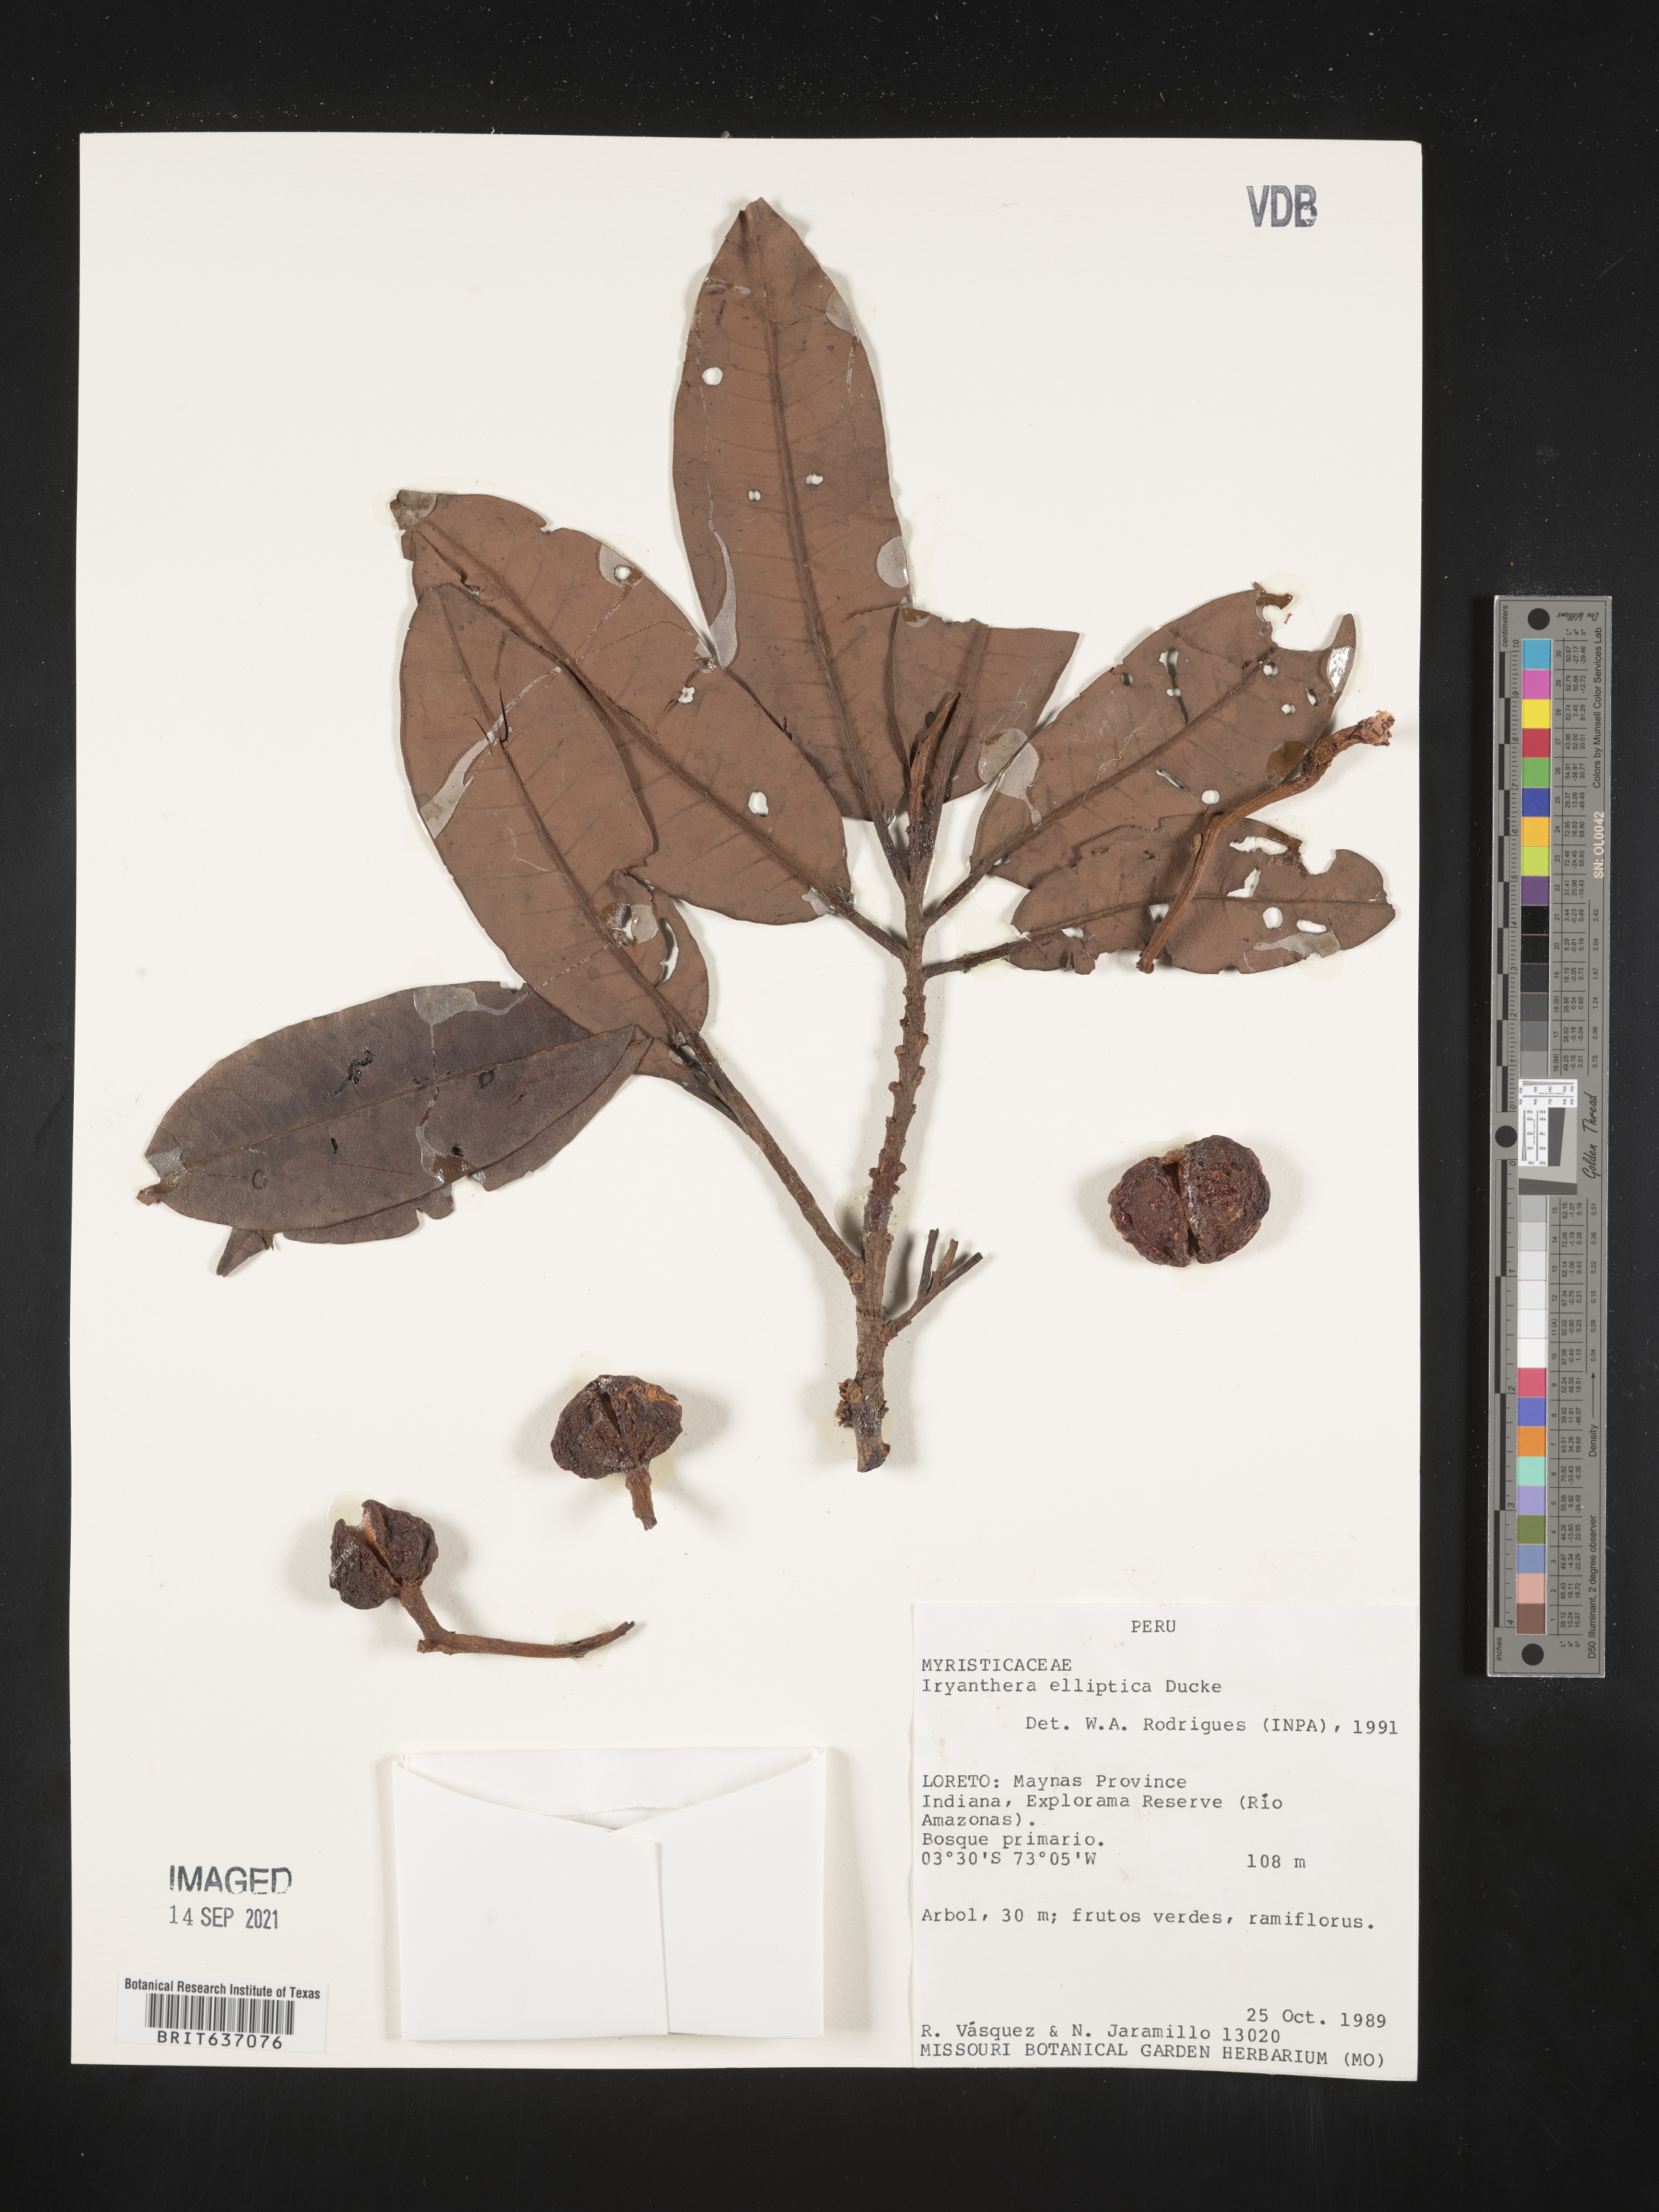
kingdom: Plantae
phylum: Tracheophyta
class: Magnoliopsida
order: Magnoliales
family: Myristicaceae
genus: Iryanthera
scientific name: Iryanthera
